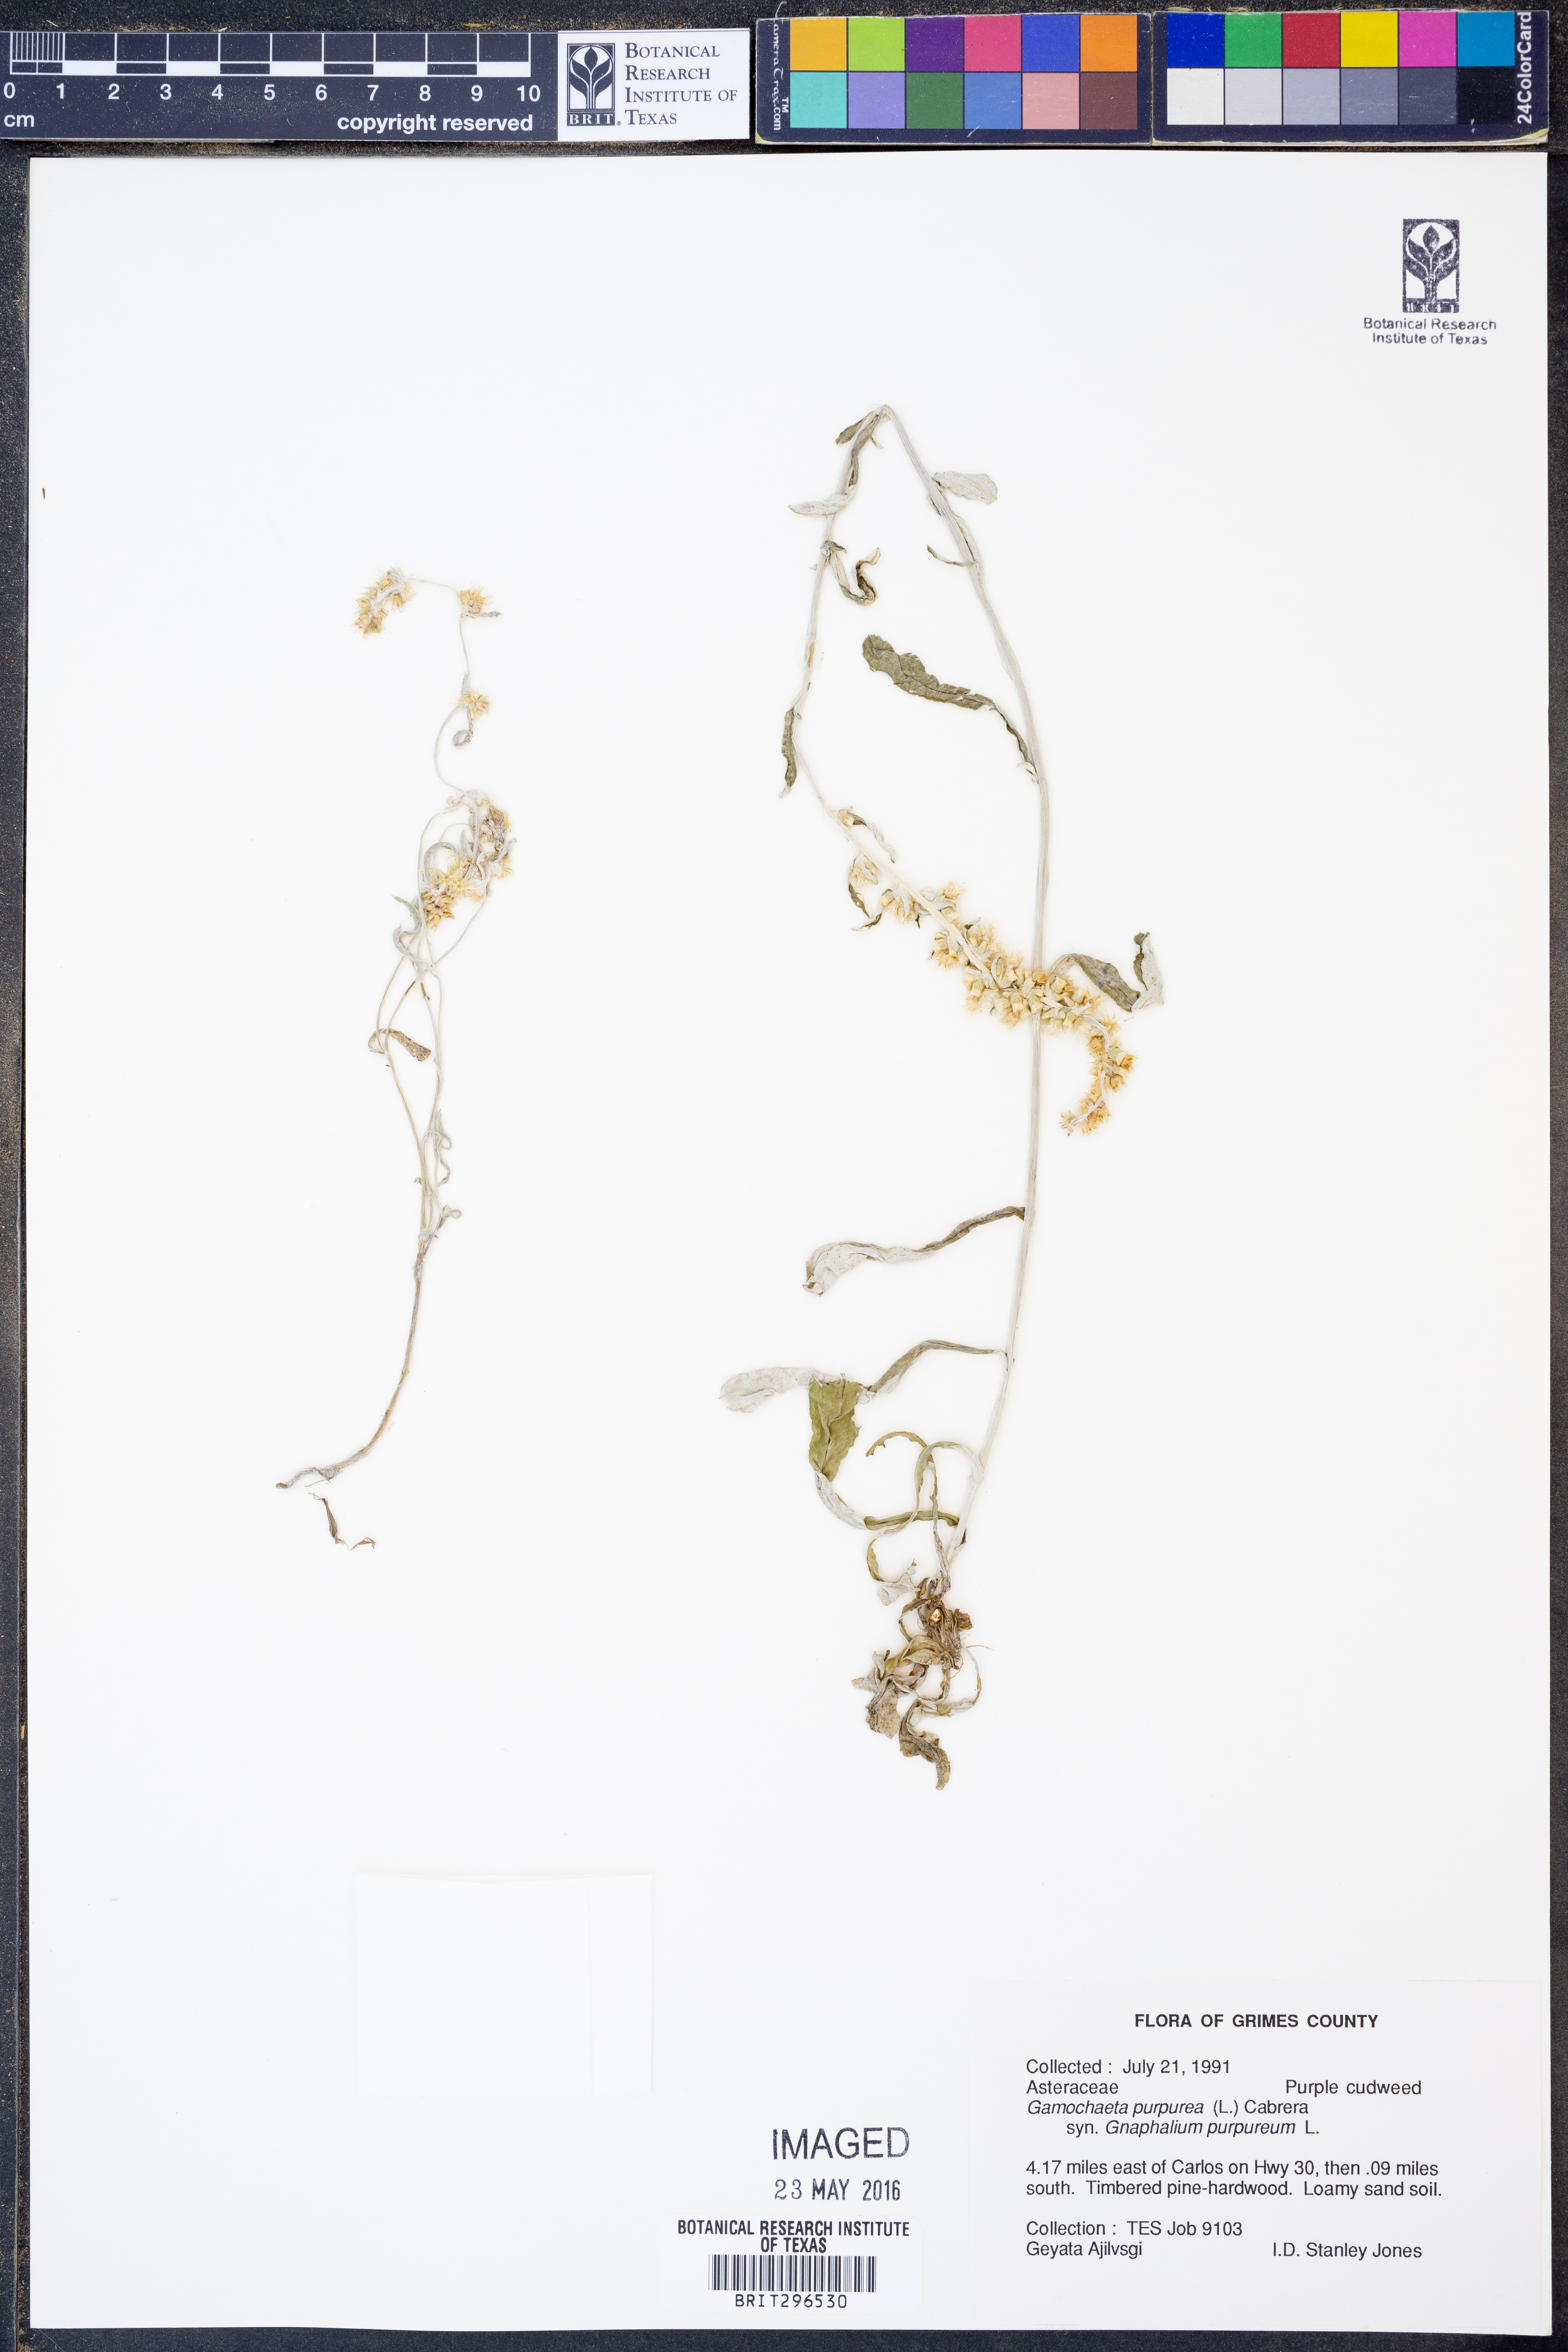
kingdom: Plantae
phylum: Tracheophyta
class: Magnoliopsida
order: Asterales
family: Asteraceae
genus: Gamochaeta
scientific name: Gamochaeta purpurea
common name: Purple cudweed
